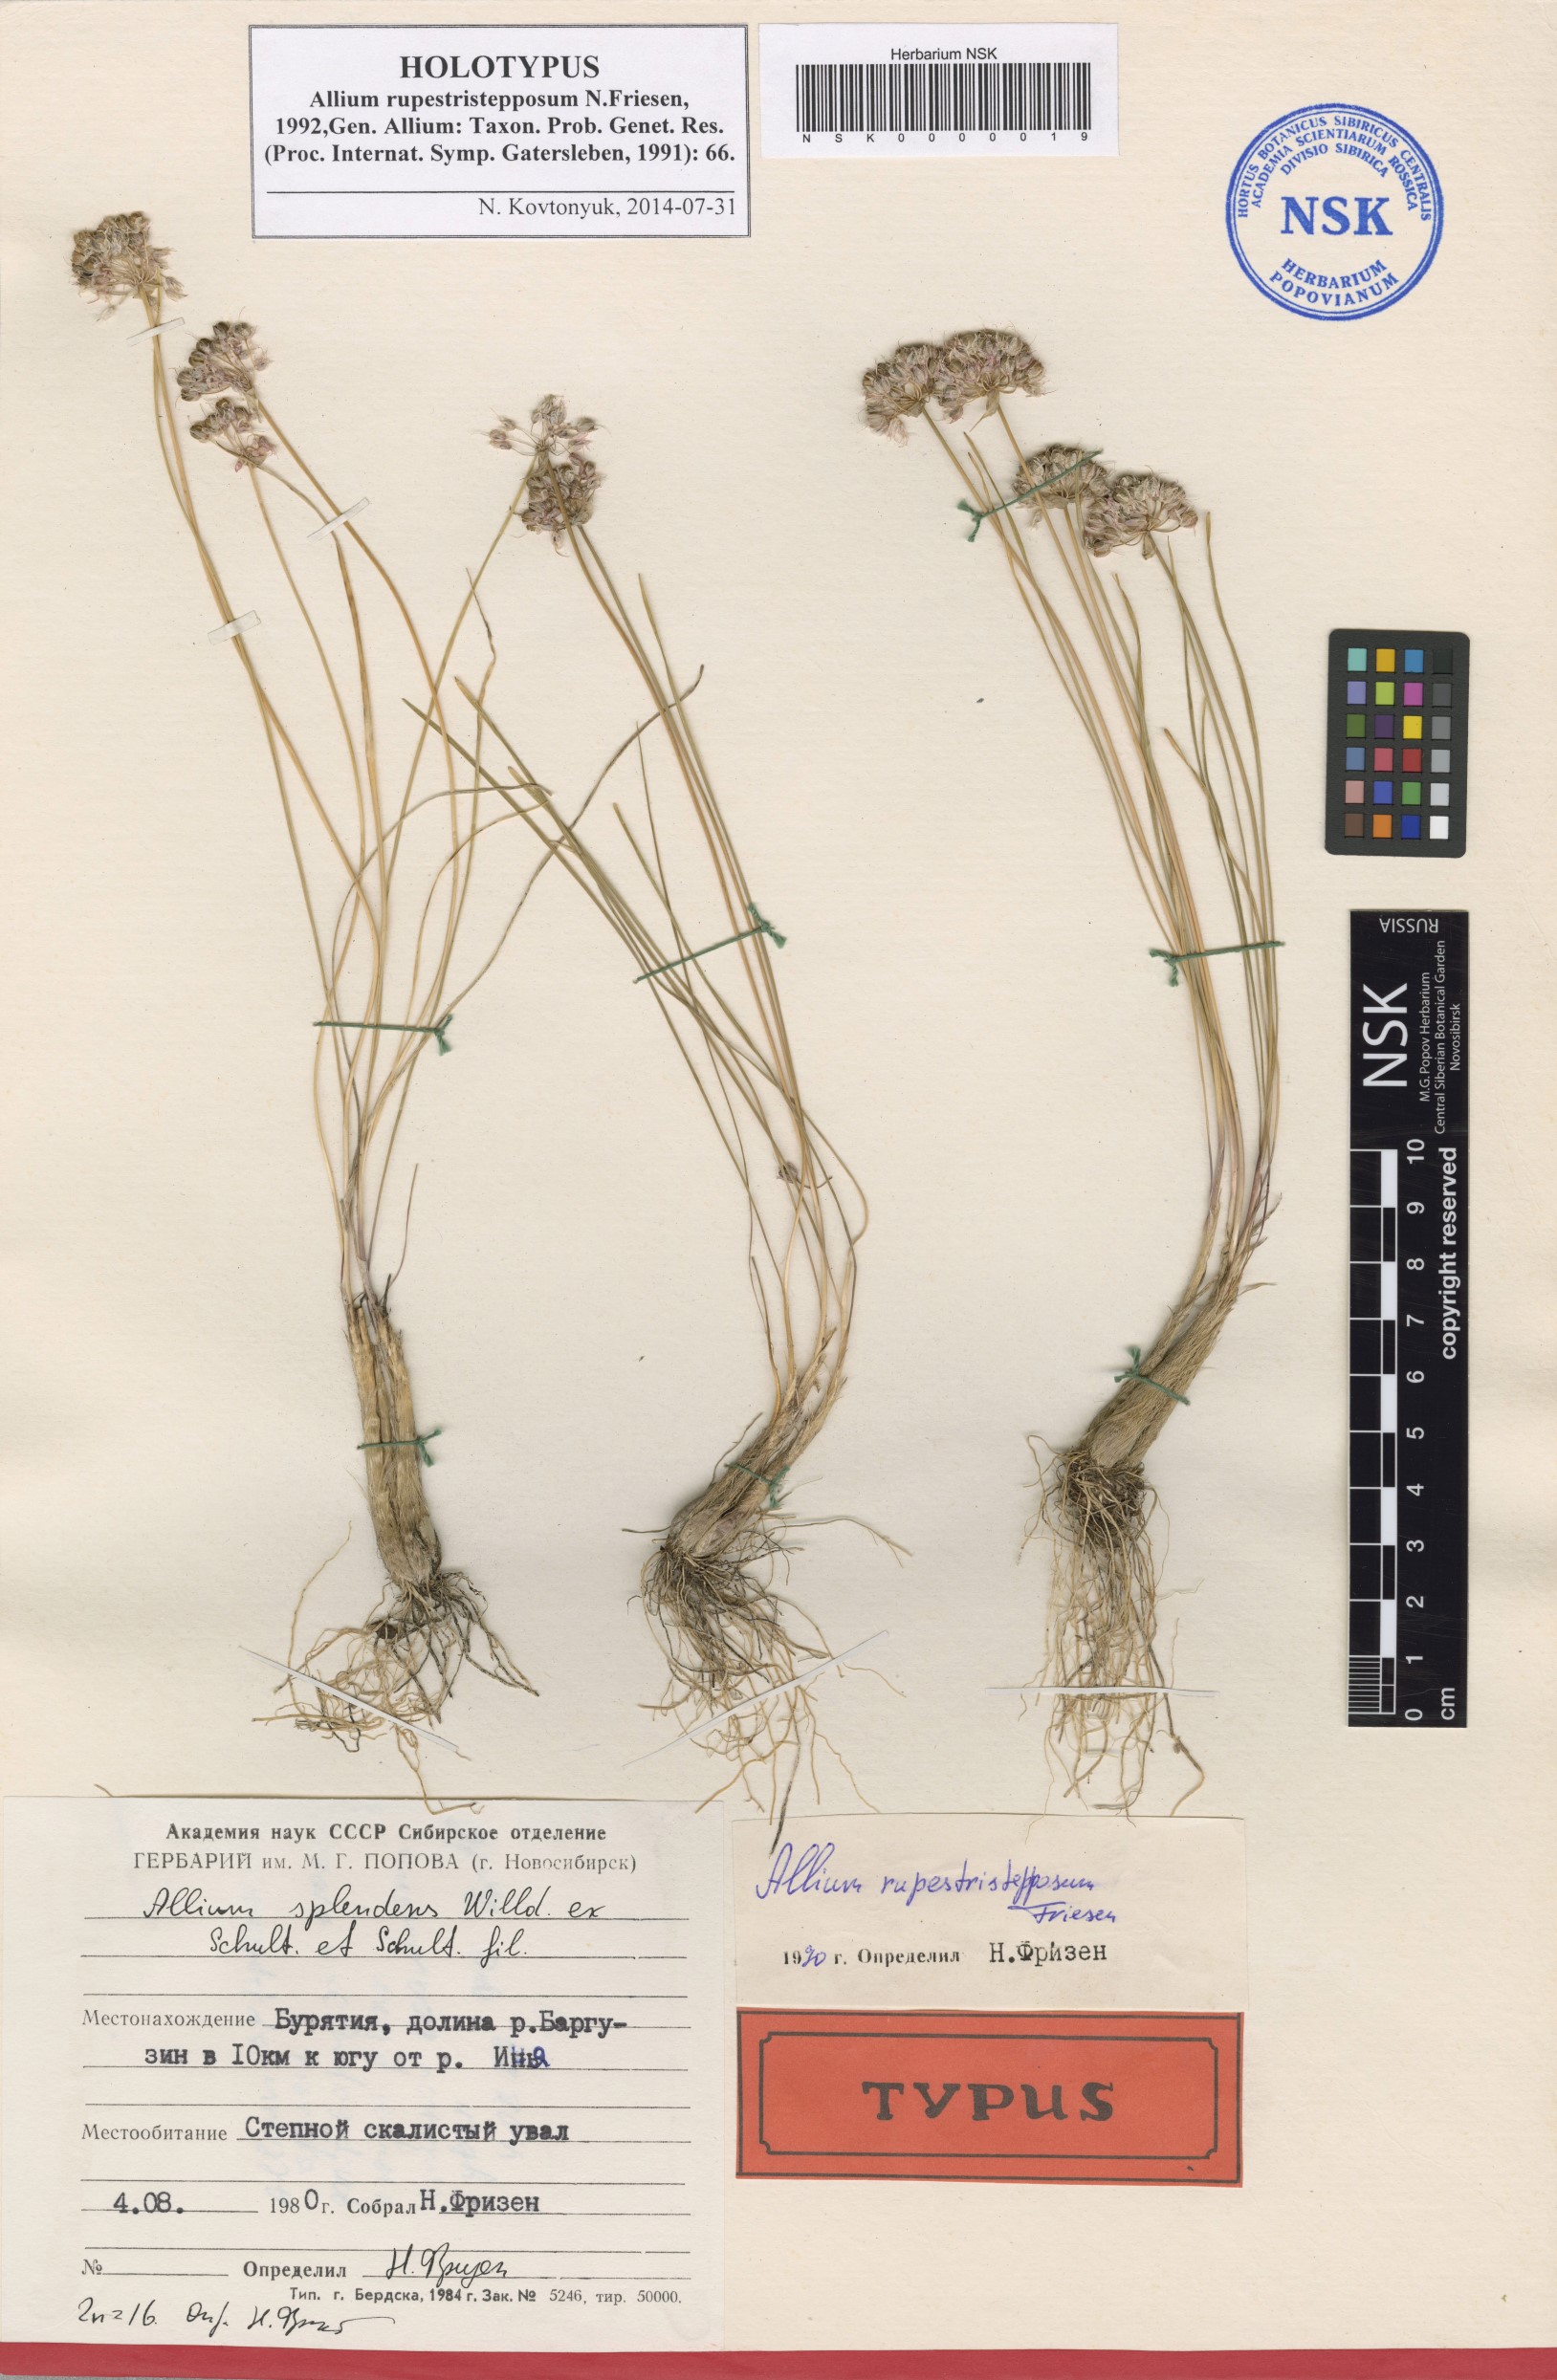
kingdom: Plantae
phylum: Tracheophyta
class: Liliopsida
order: Asparagales
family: Amaryllidaceae
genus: Allium
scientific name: Allium rupestristepposum
